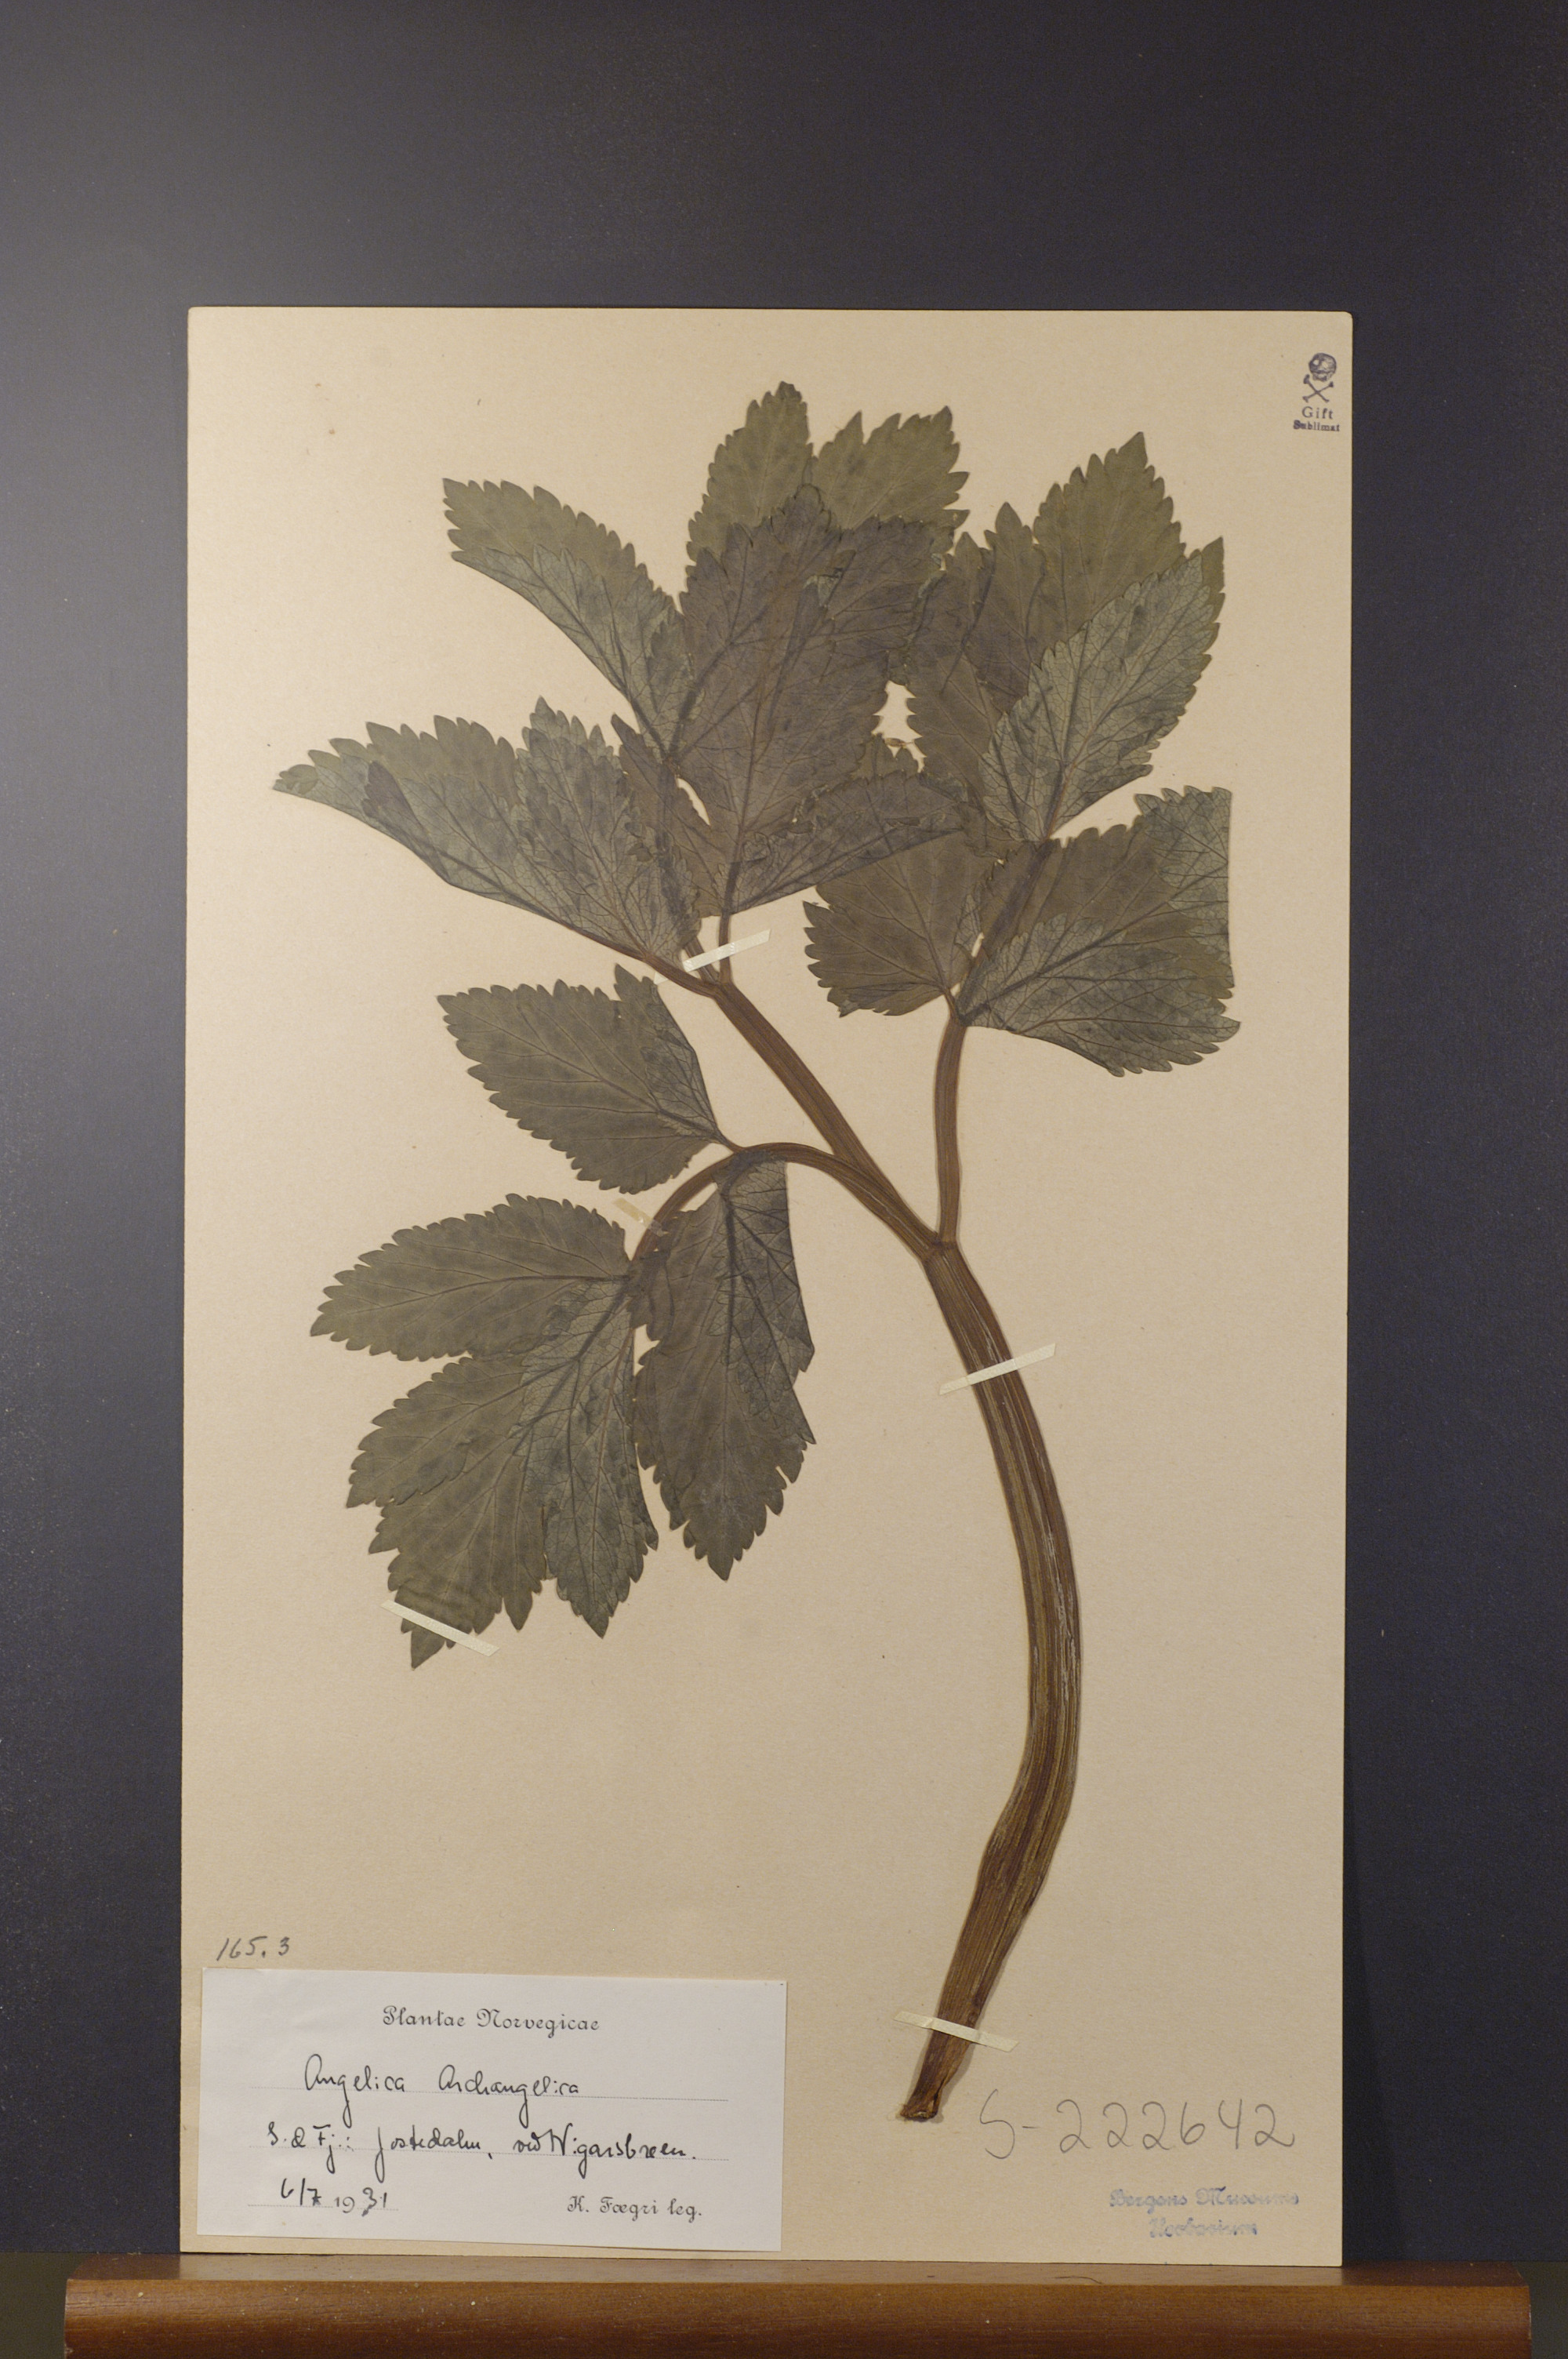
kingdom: Plantae
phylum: Tracheophyta
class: Magnoliopsida
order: Apiales
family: Apiaceae
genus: Angelica
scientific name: Angelica archangelica
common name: Garden angelica
